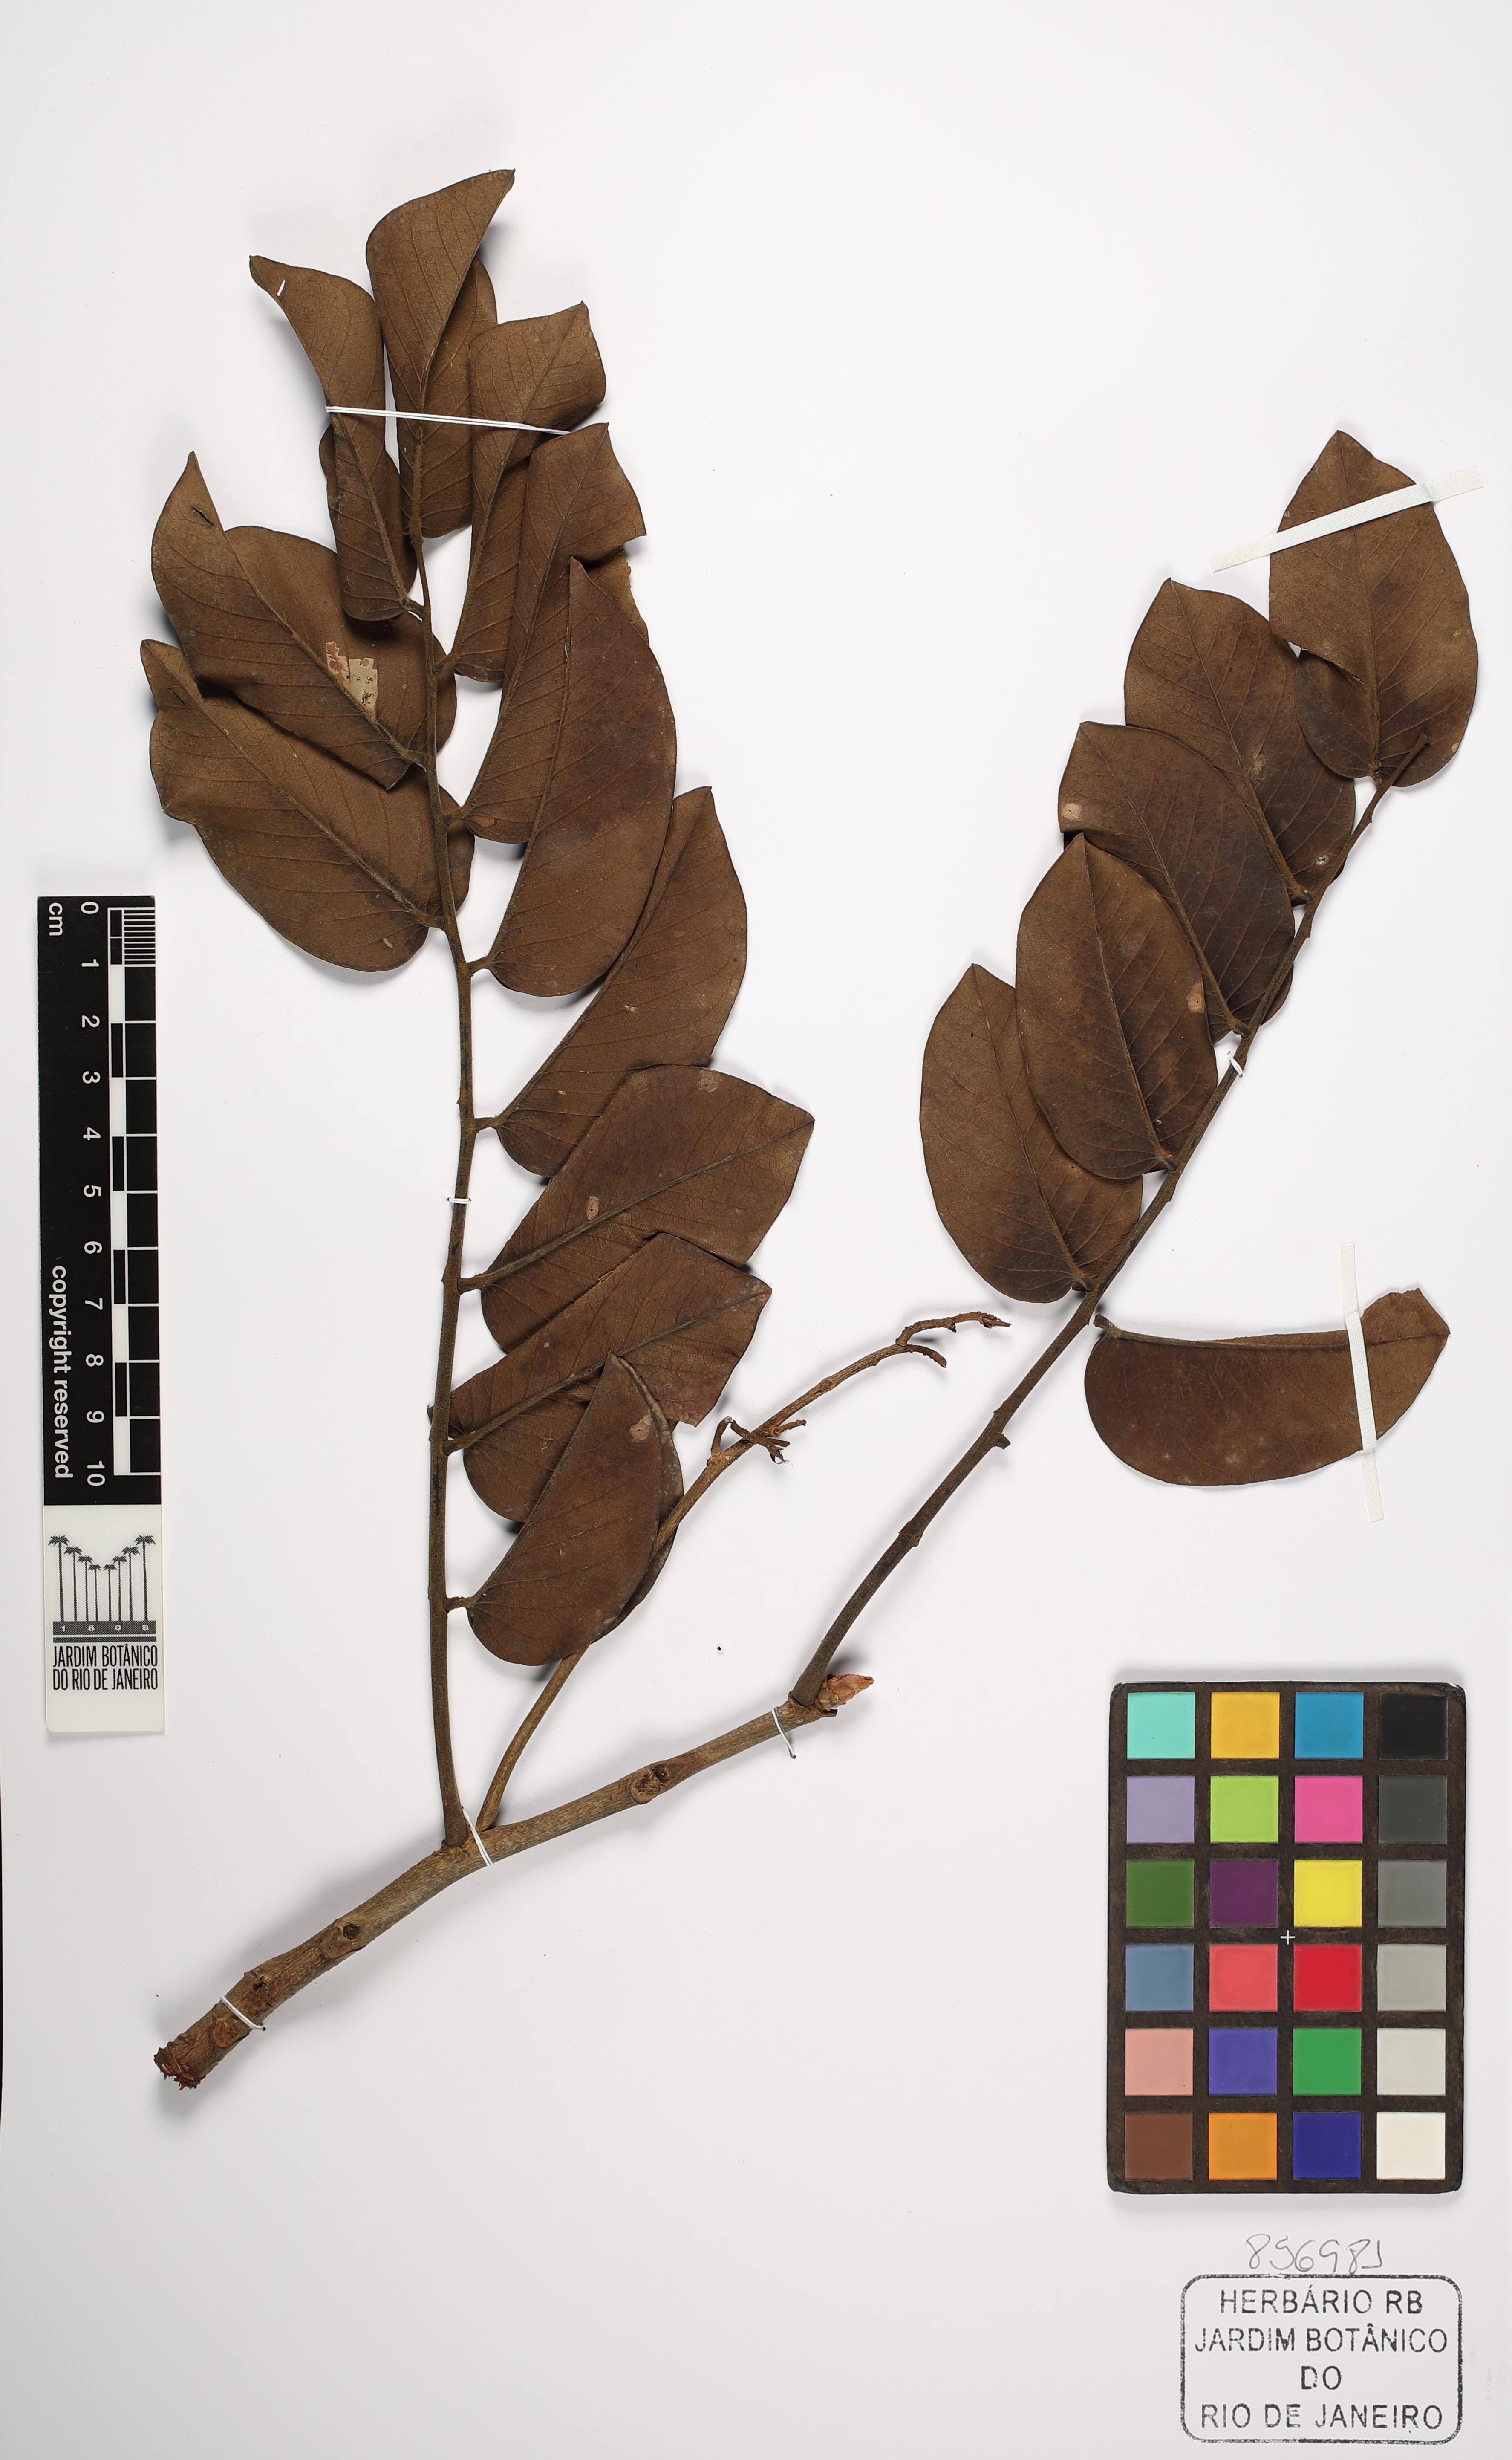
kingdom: Plantae
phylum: Tracheophyta
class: Magnoliopsida
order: Fabales
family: Fabaceae
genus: Machaerium
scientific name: Machaerium opacum
